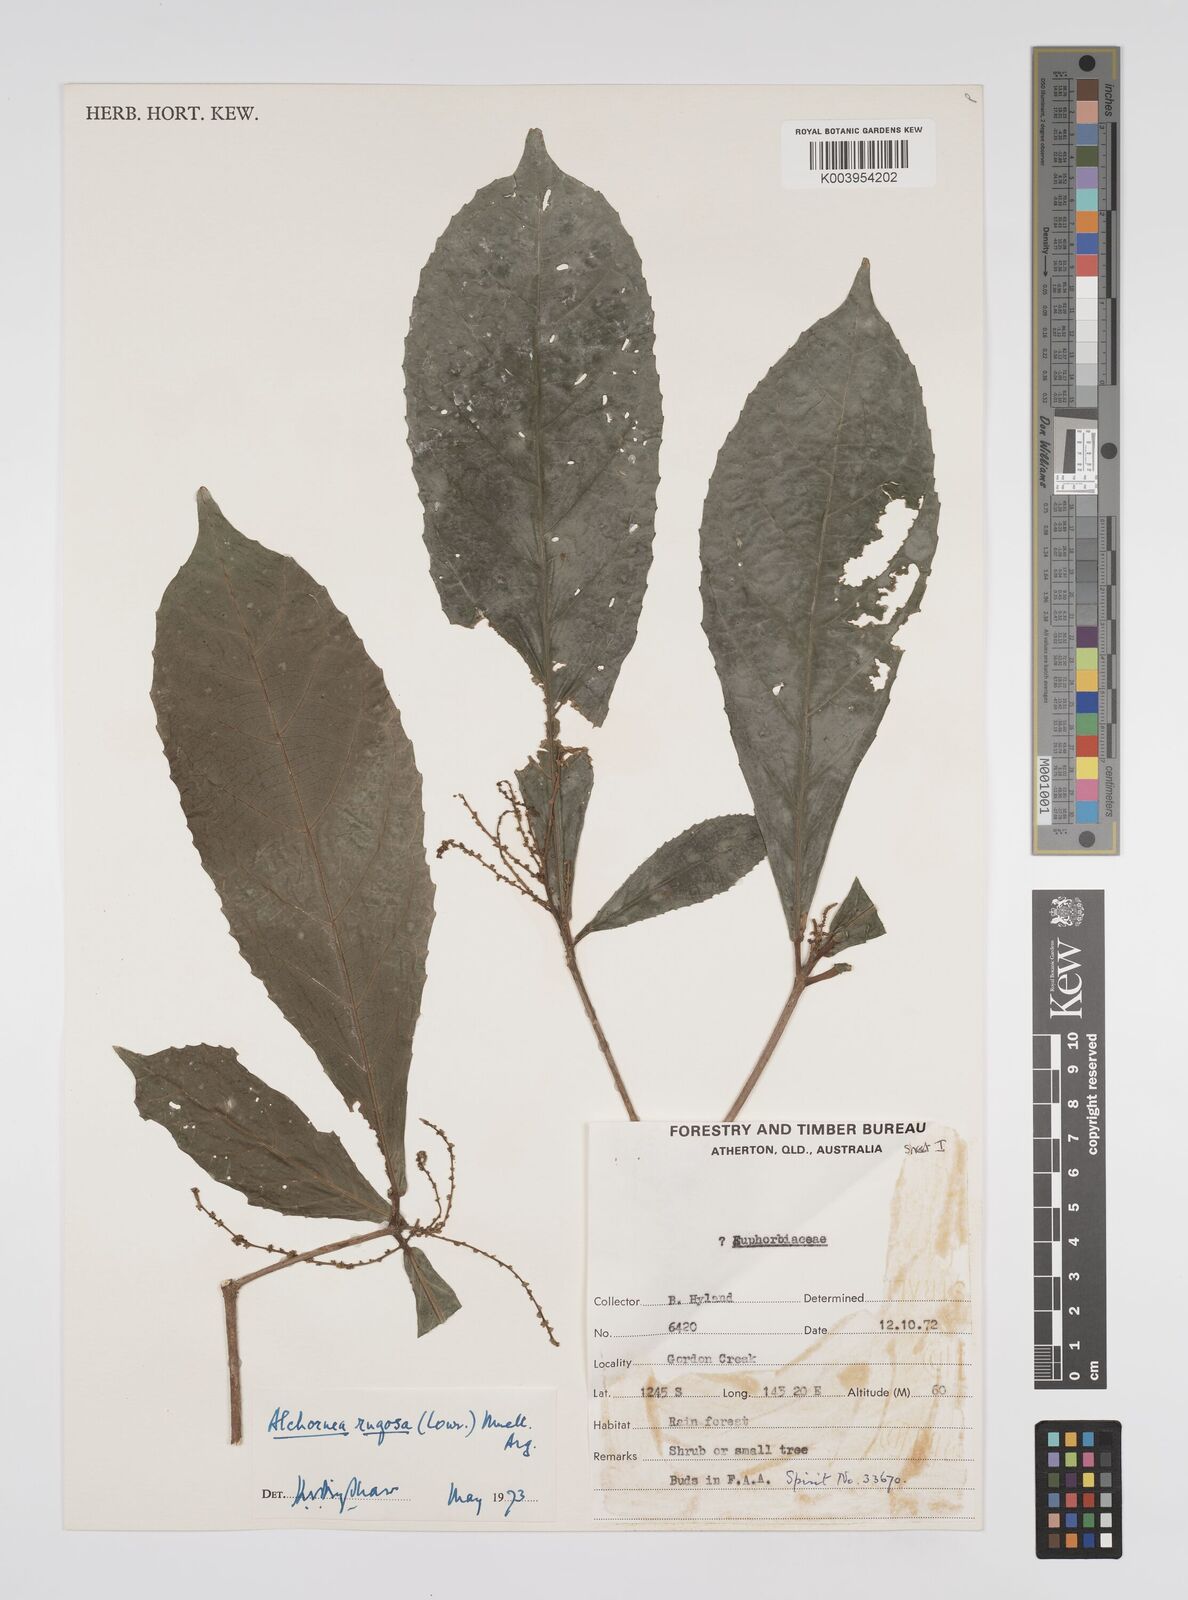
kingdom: Plantae
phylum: Tracheophyta
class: Magnoliopsida
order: Malpighiales
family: Euphorbiaceae
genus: Alchornea
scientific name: Alchornea rugosa
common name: Alchorntree
